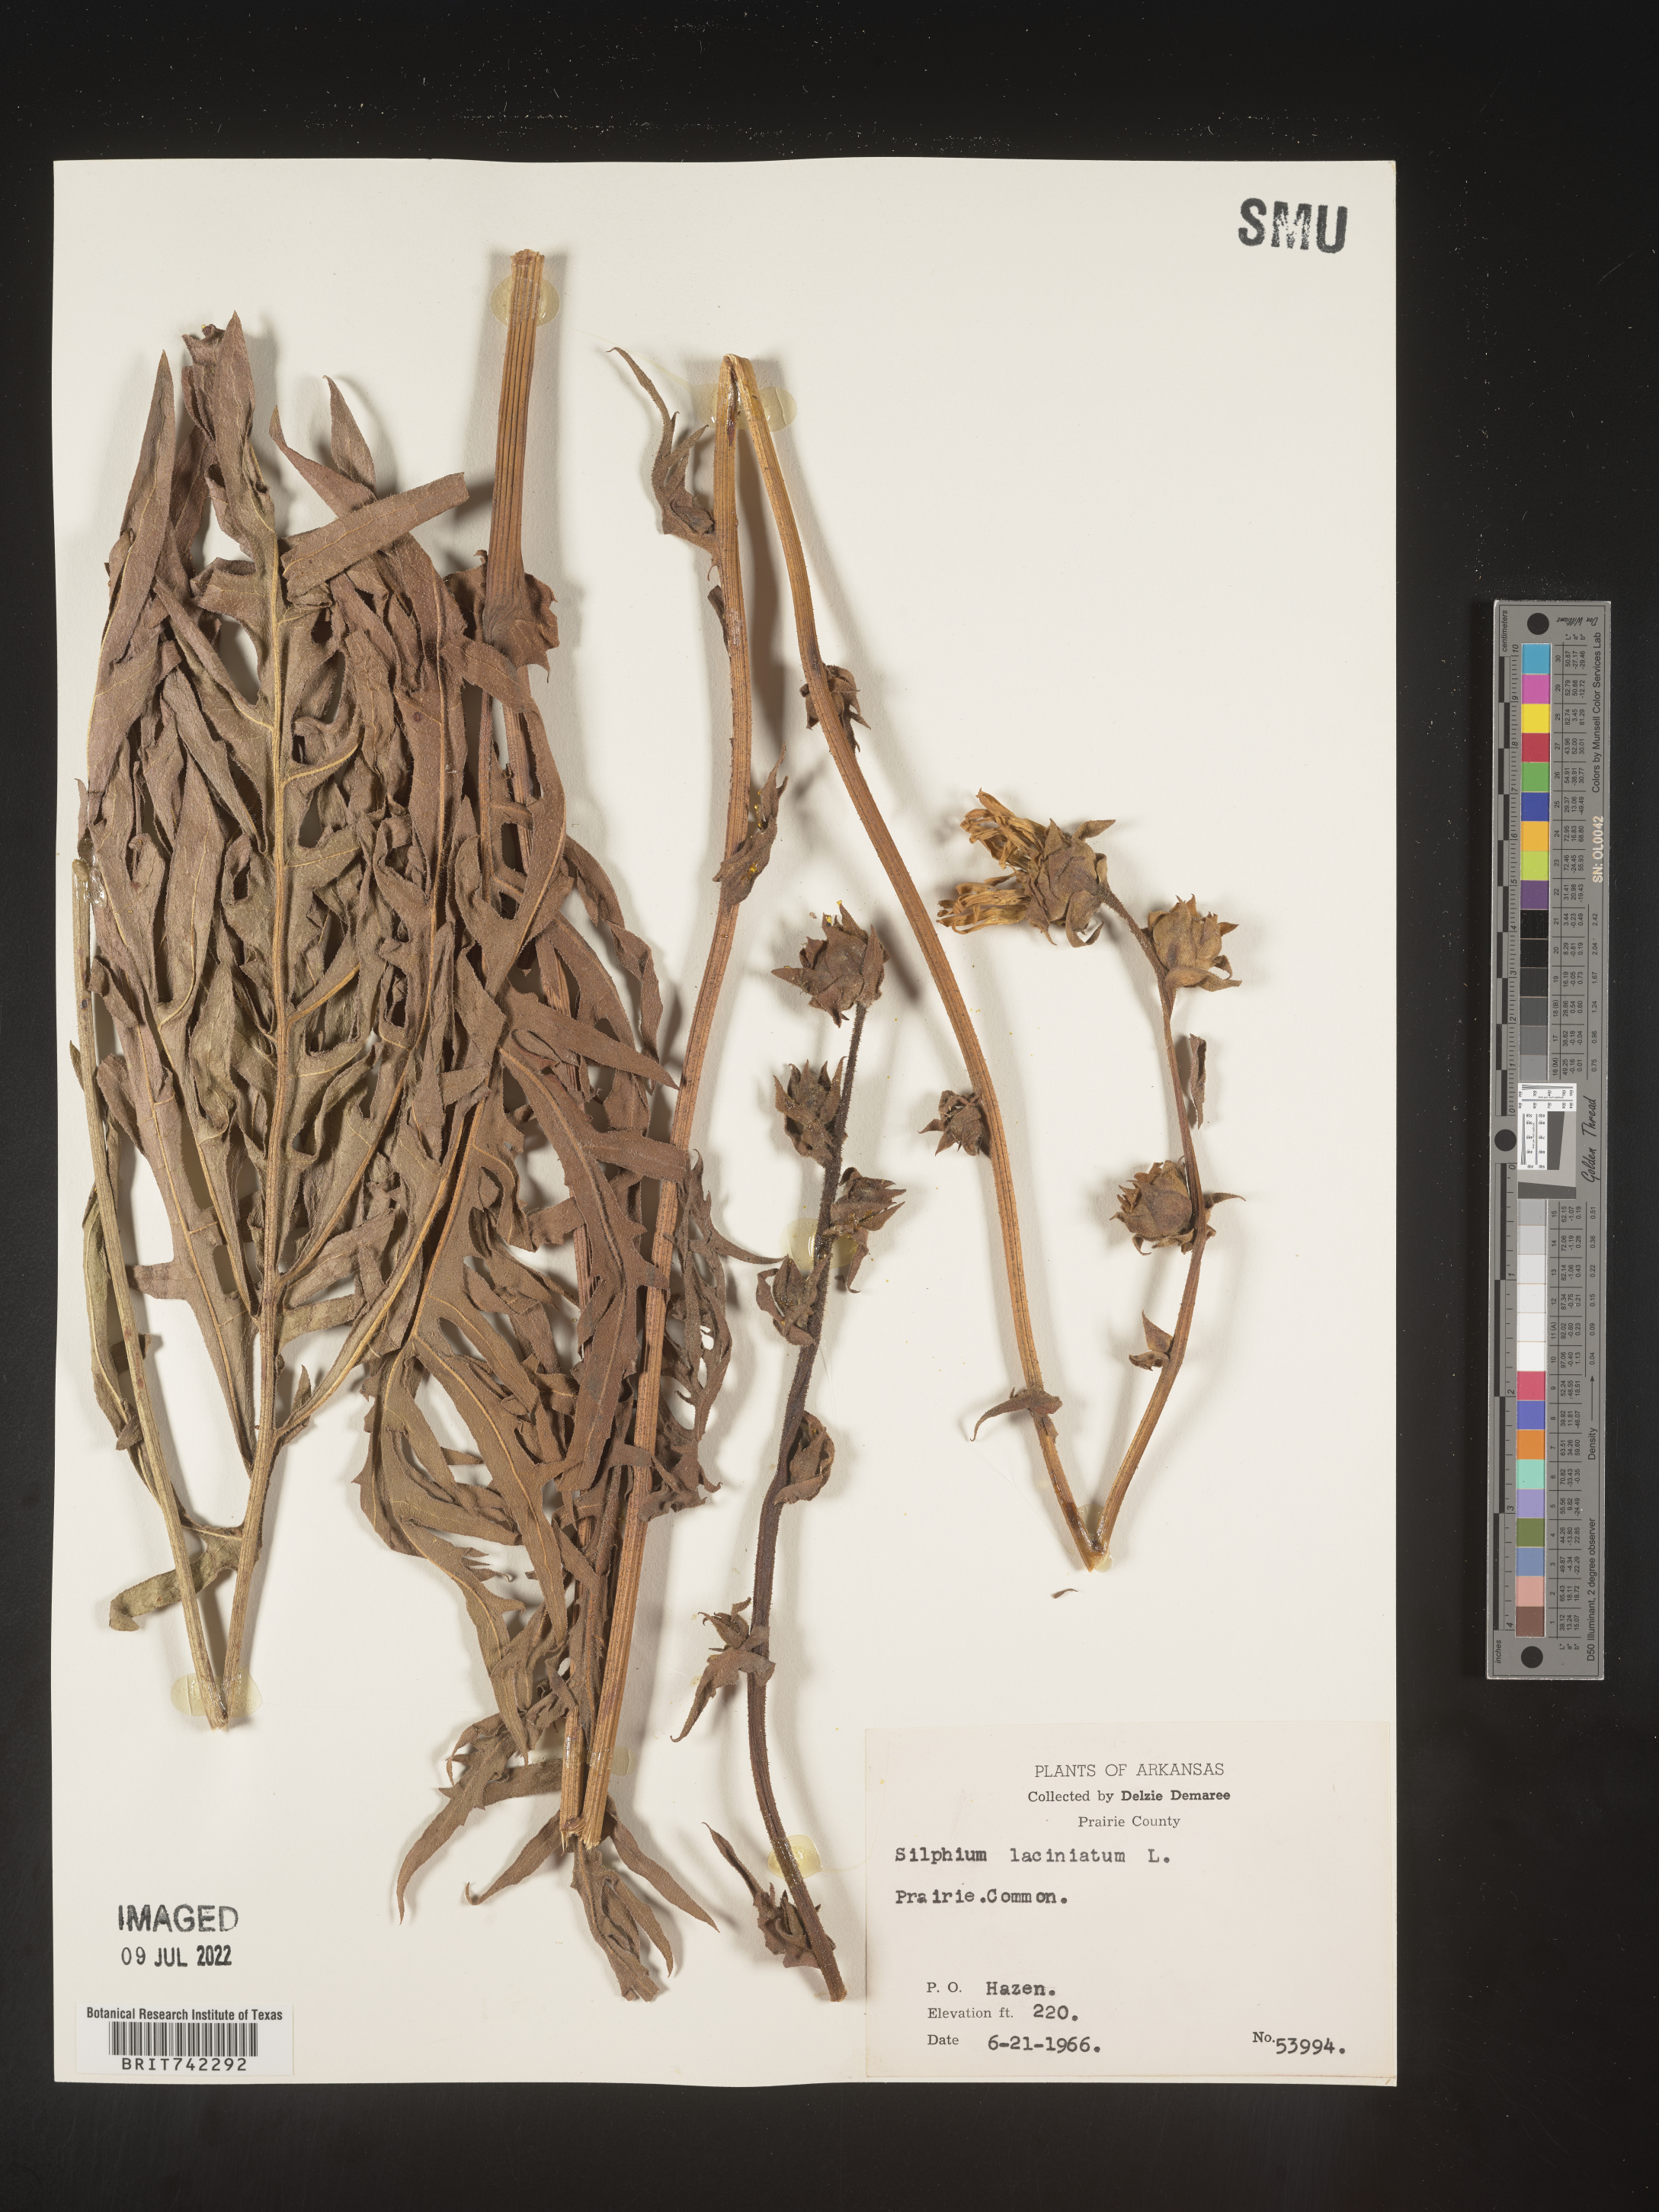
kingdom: Plantae
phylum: Tracheophyta
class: Magnoliopsida
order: Asterales
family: Asteraceae
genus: Silphium
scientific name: Silphium laciniatum
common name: Polarplant
